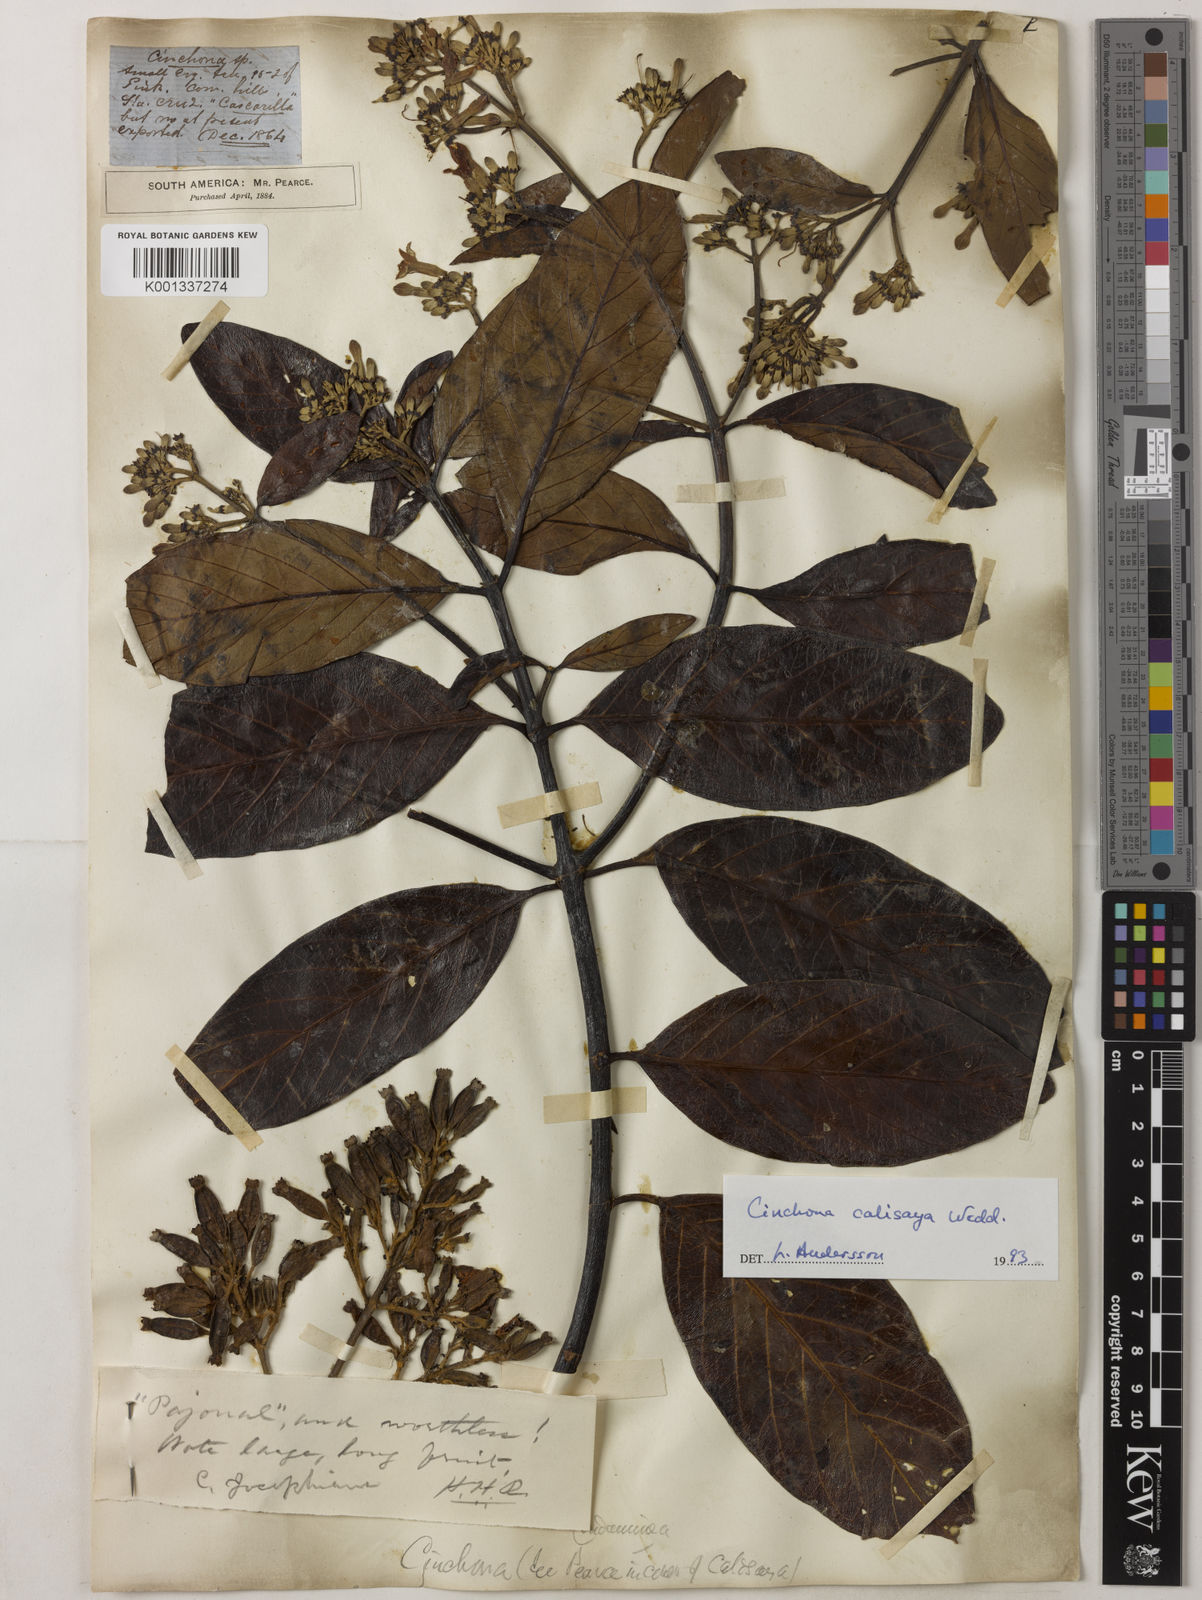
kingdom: Plantae
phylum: Tracheophyta
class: Magnoliopsida
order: Gentianales
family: Rubiaceae
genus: Cinchona
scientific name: Cinchona calisaya
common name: Ledgerbark
